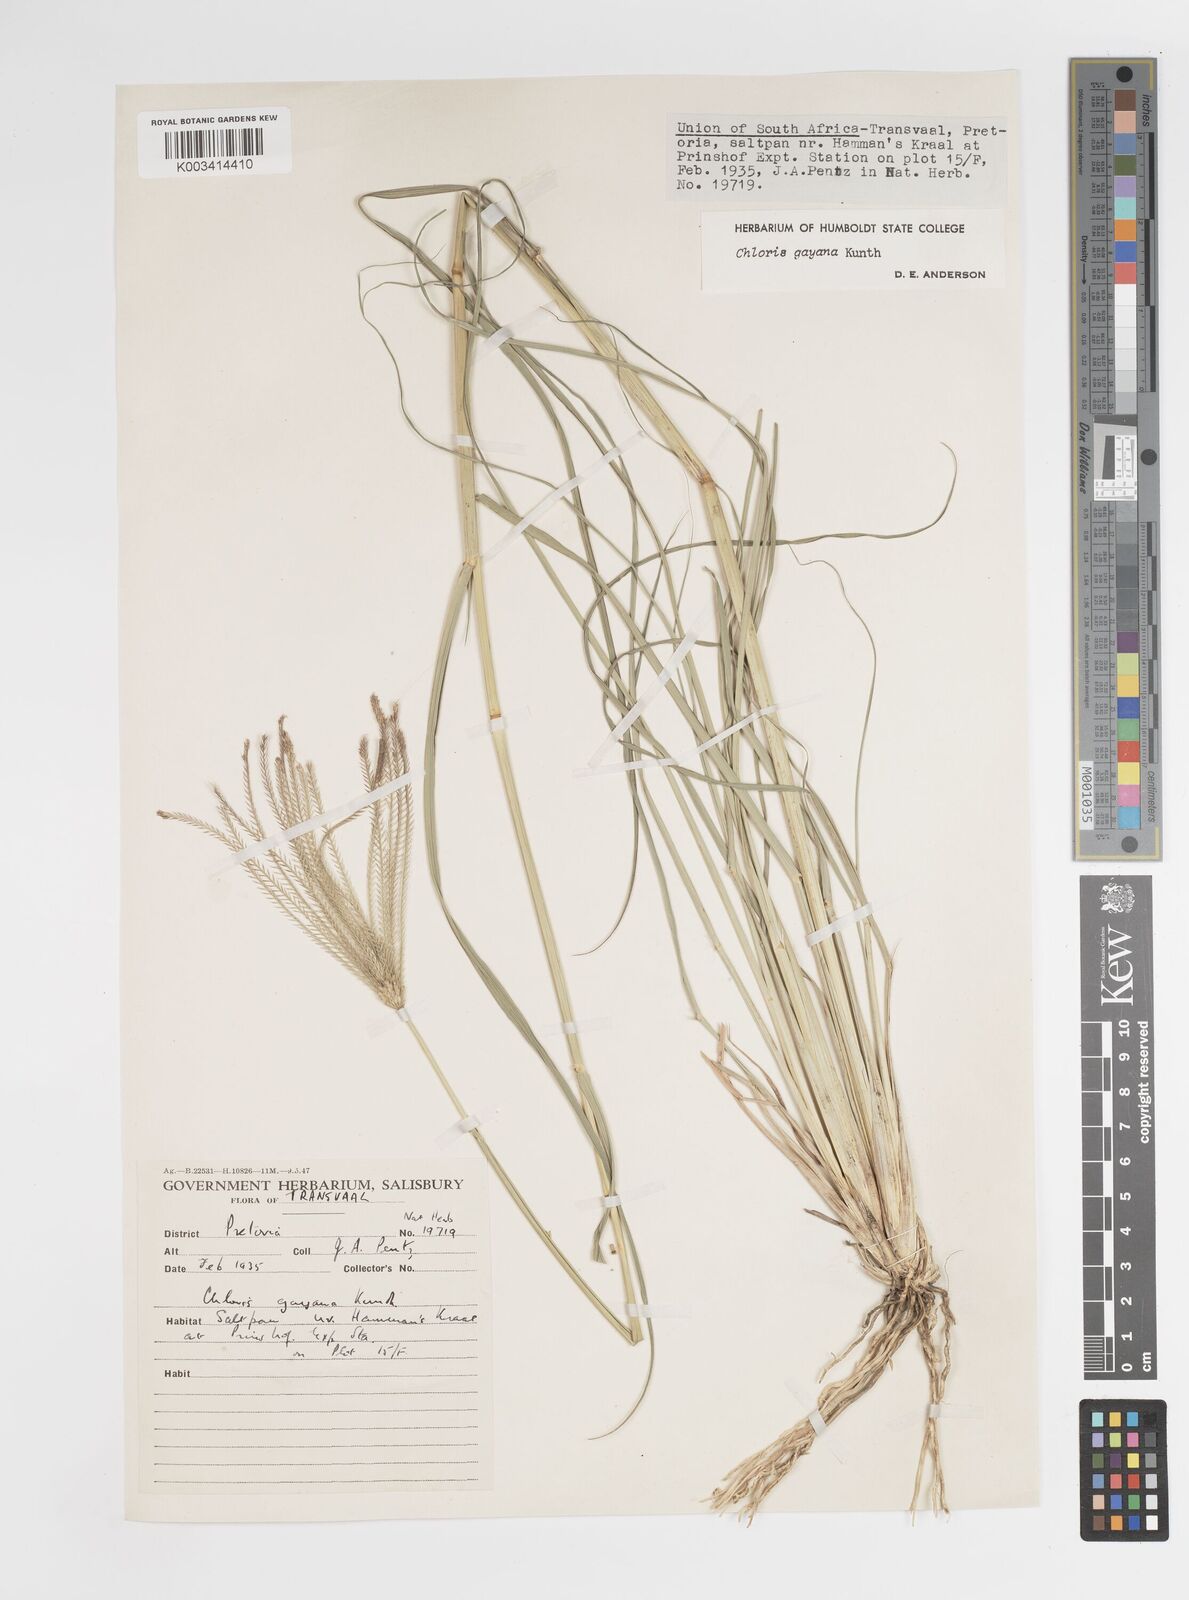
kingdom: Plantae
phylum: Tracheophyta
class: Liliopsida
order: Poales
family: Poaceae
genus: Chloris
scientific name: Chloris gayana
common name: Rhodes grass
